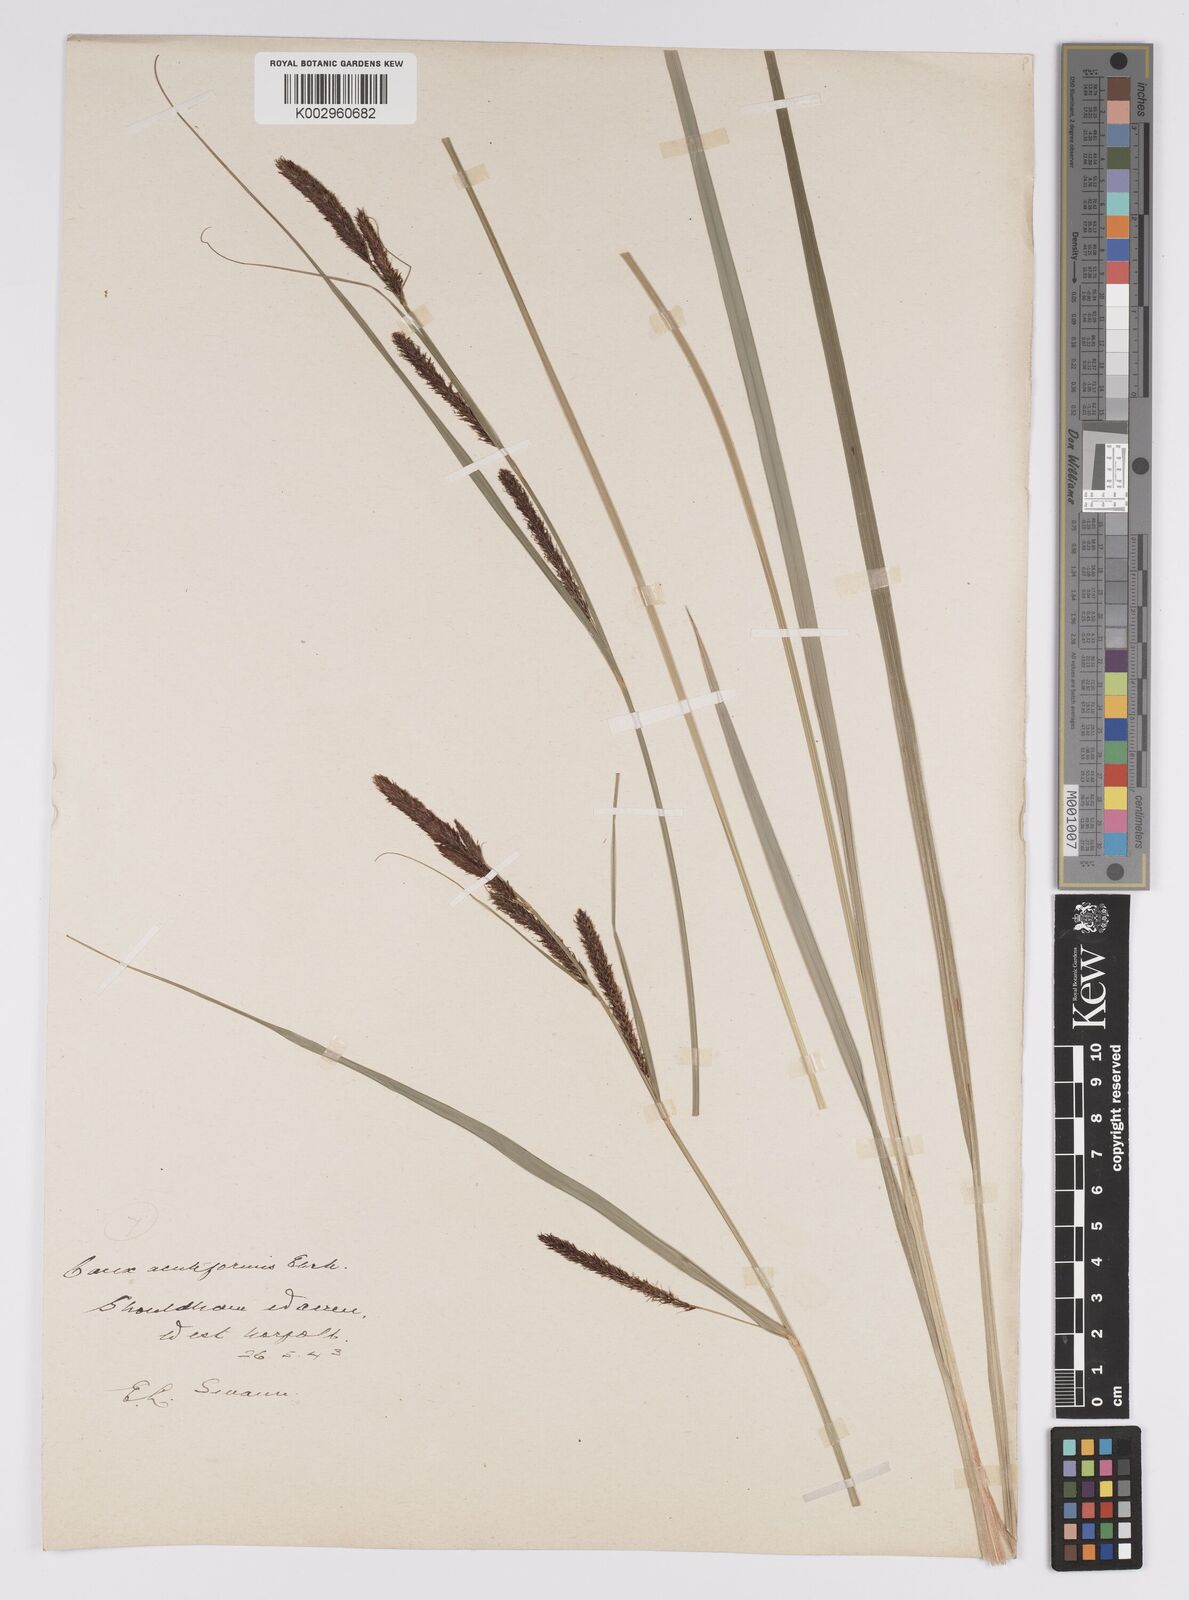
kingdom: Plantae
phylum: Tracheophyta
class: Liliopsida
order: Poales
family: Cyperaceae
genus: Carex
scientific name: Carex acutiformis
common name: Lesser pond-sedge
